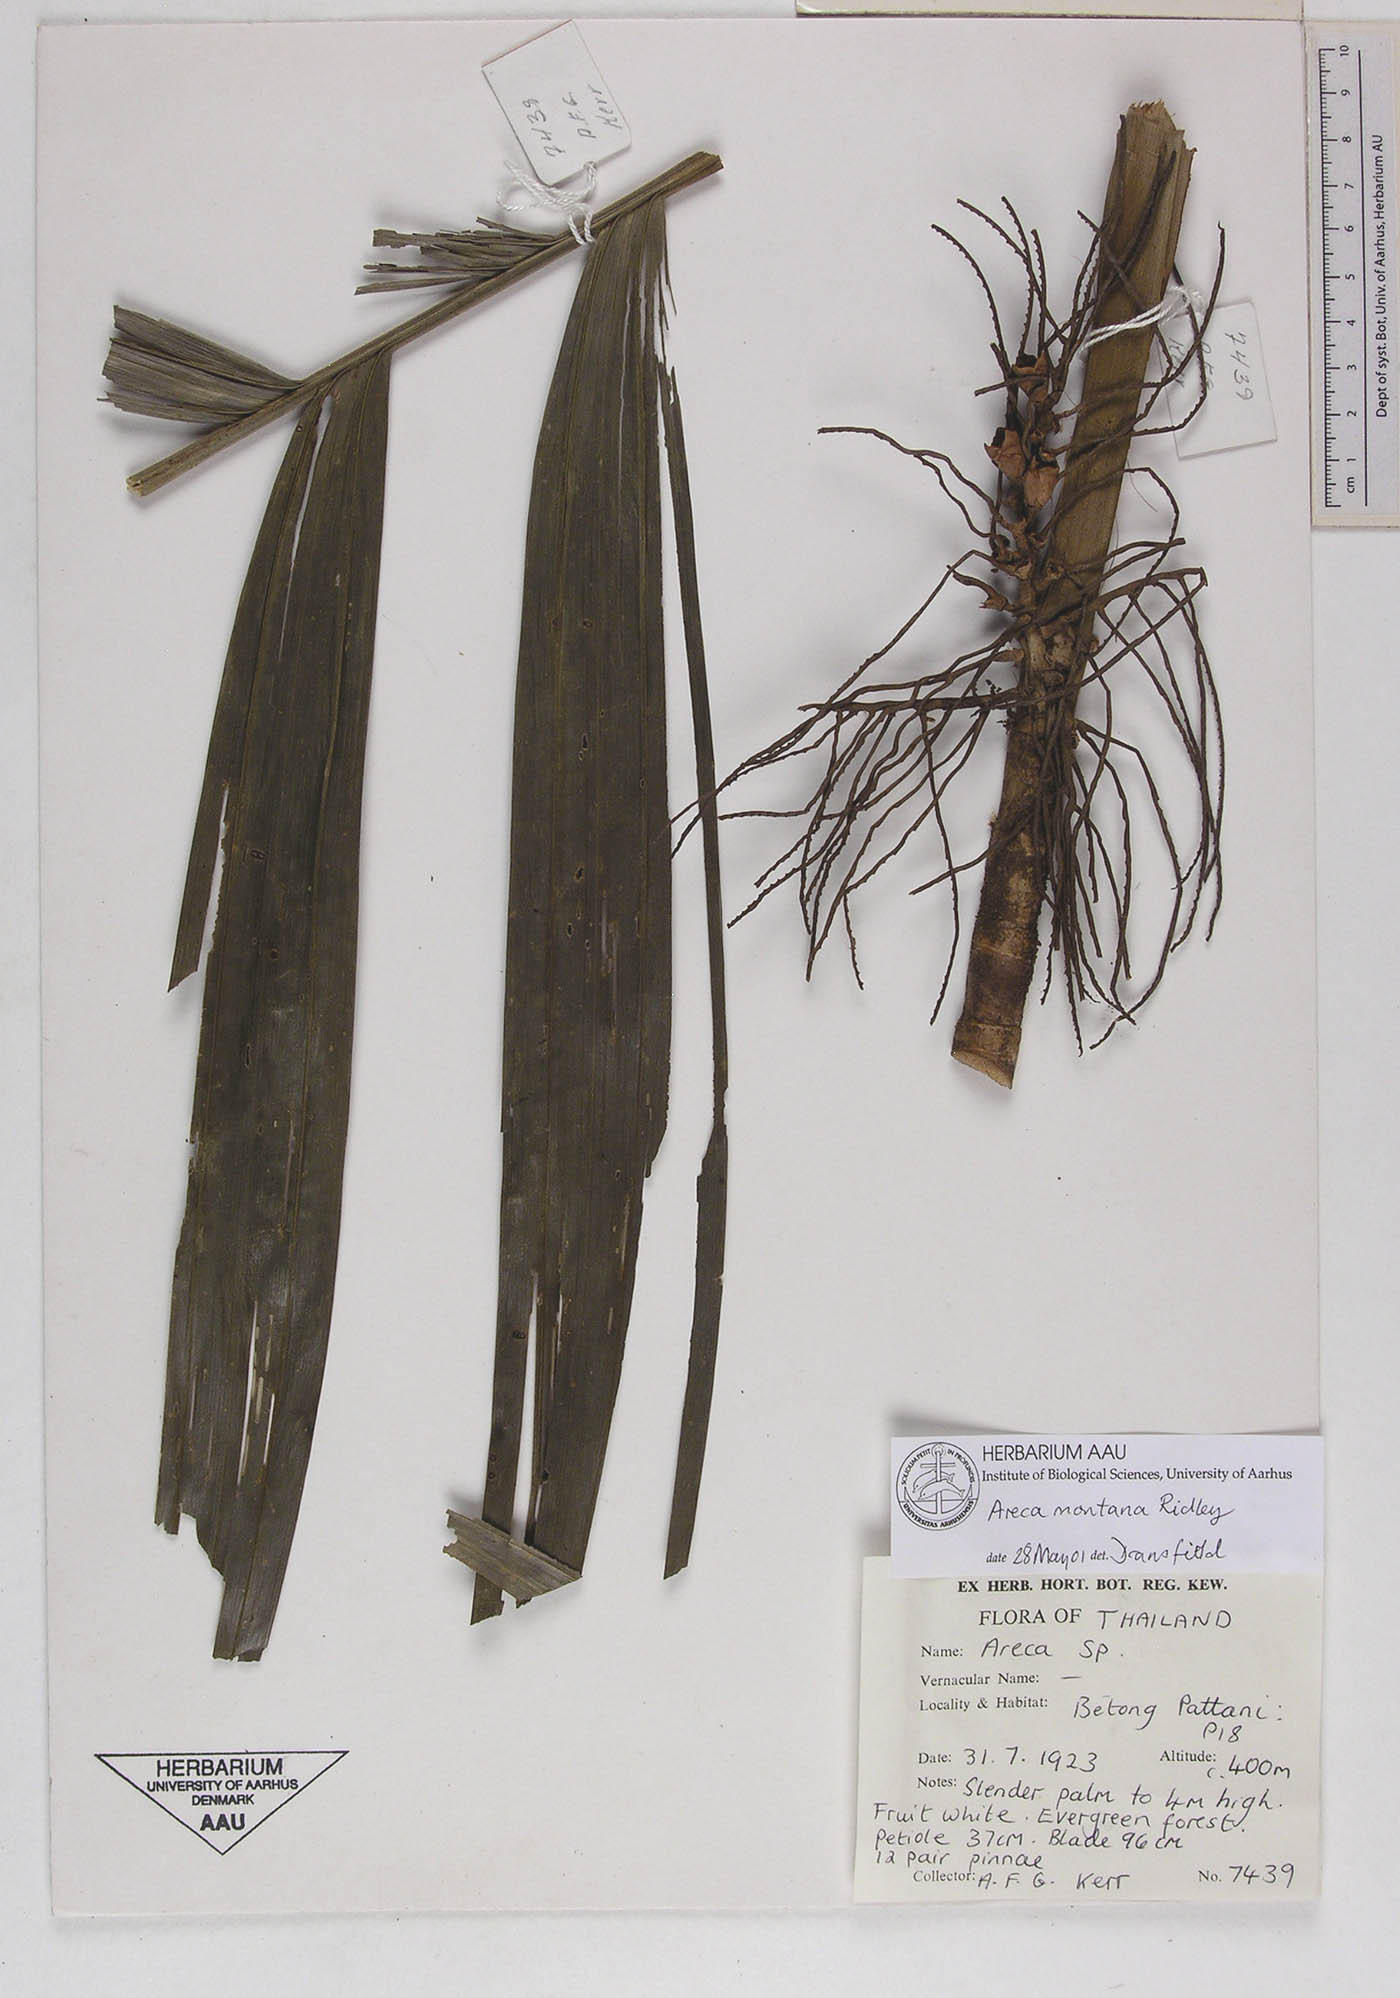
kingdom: Plantae
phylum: Tracheophyta
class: Liliopsida
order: Arecales
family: Arecaceae
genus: Areca
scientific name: Areca montana
